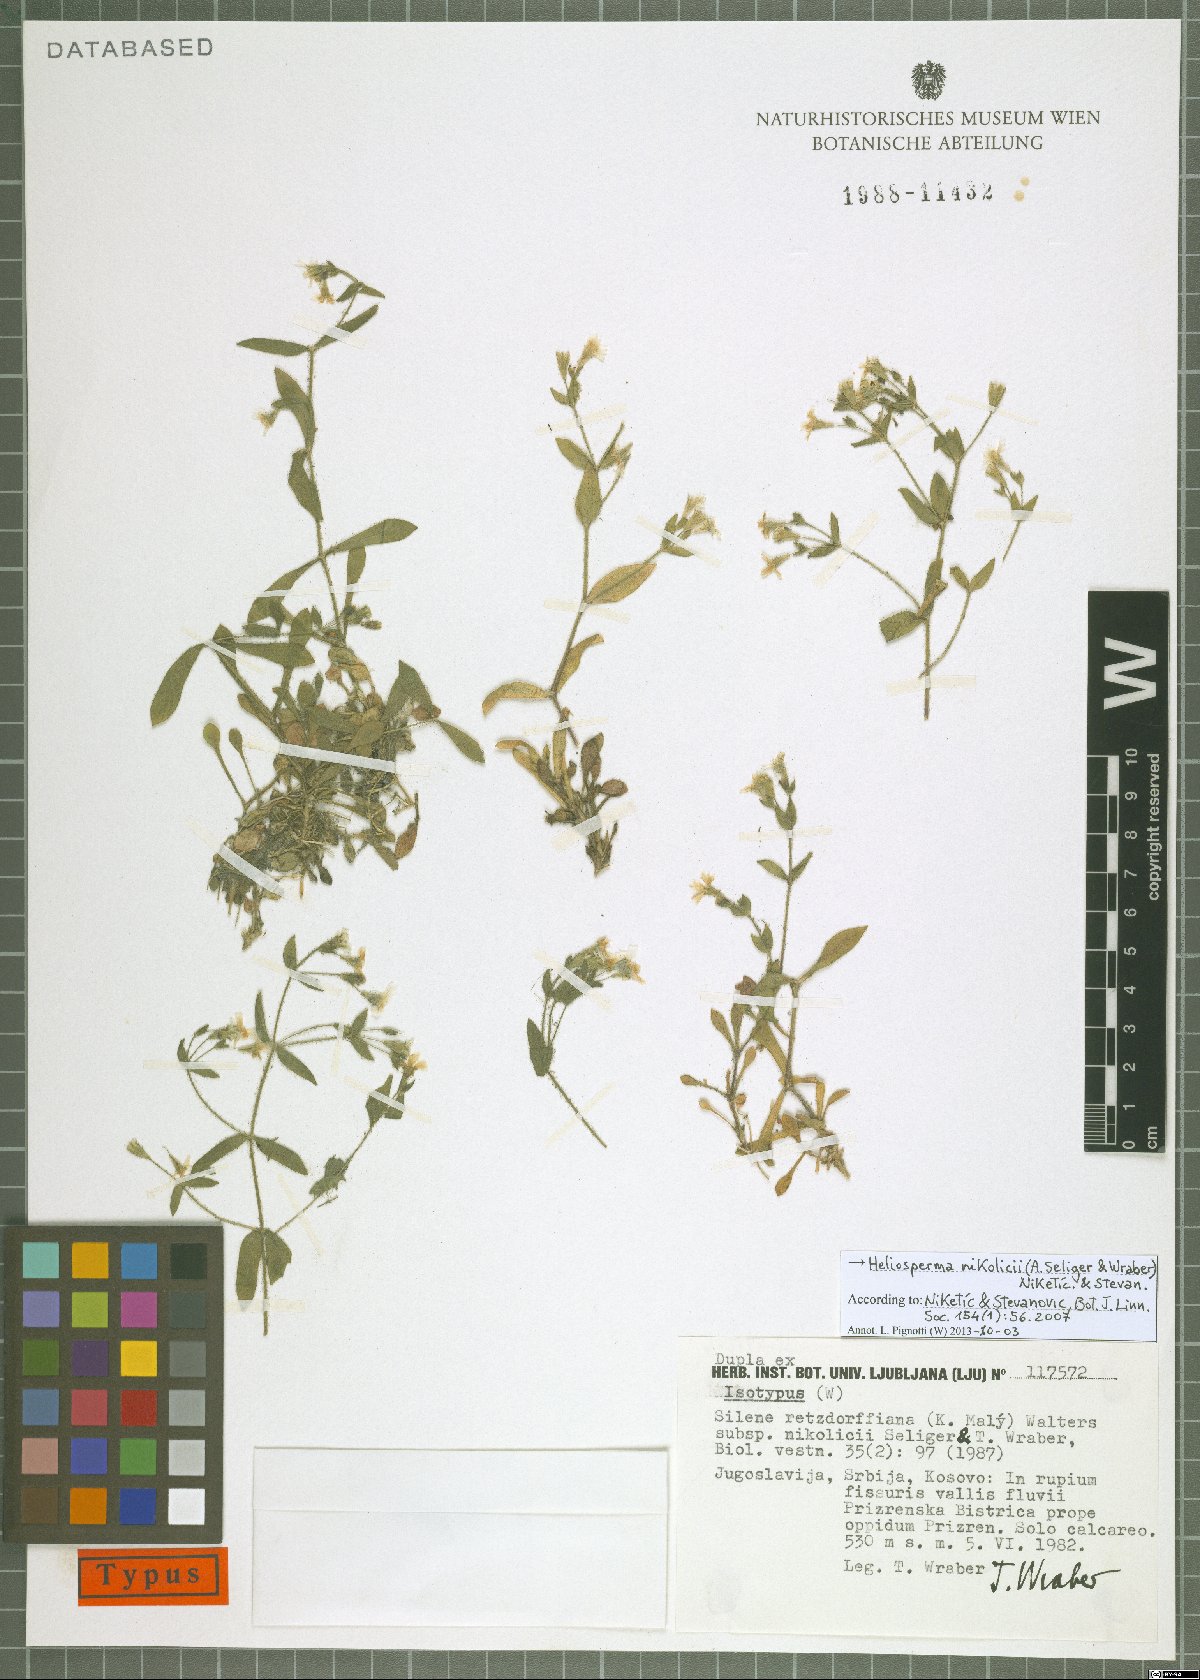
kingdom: Plantae
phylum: Tracheophyta
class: Magnoliopsida
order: Caryophyllales
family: Caryophyllaceae
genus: Heliosperma
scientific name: Heliosperma pusillum
